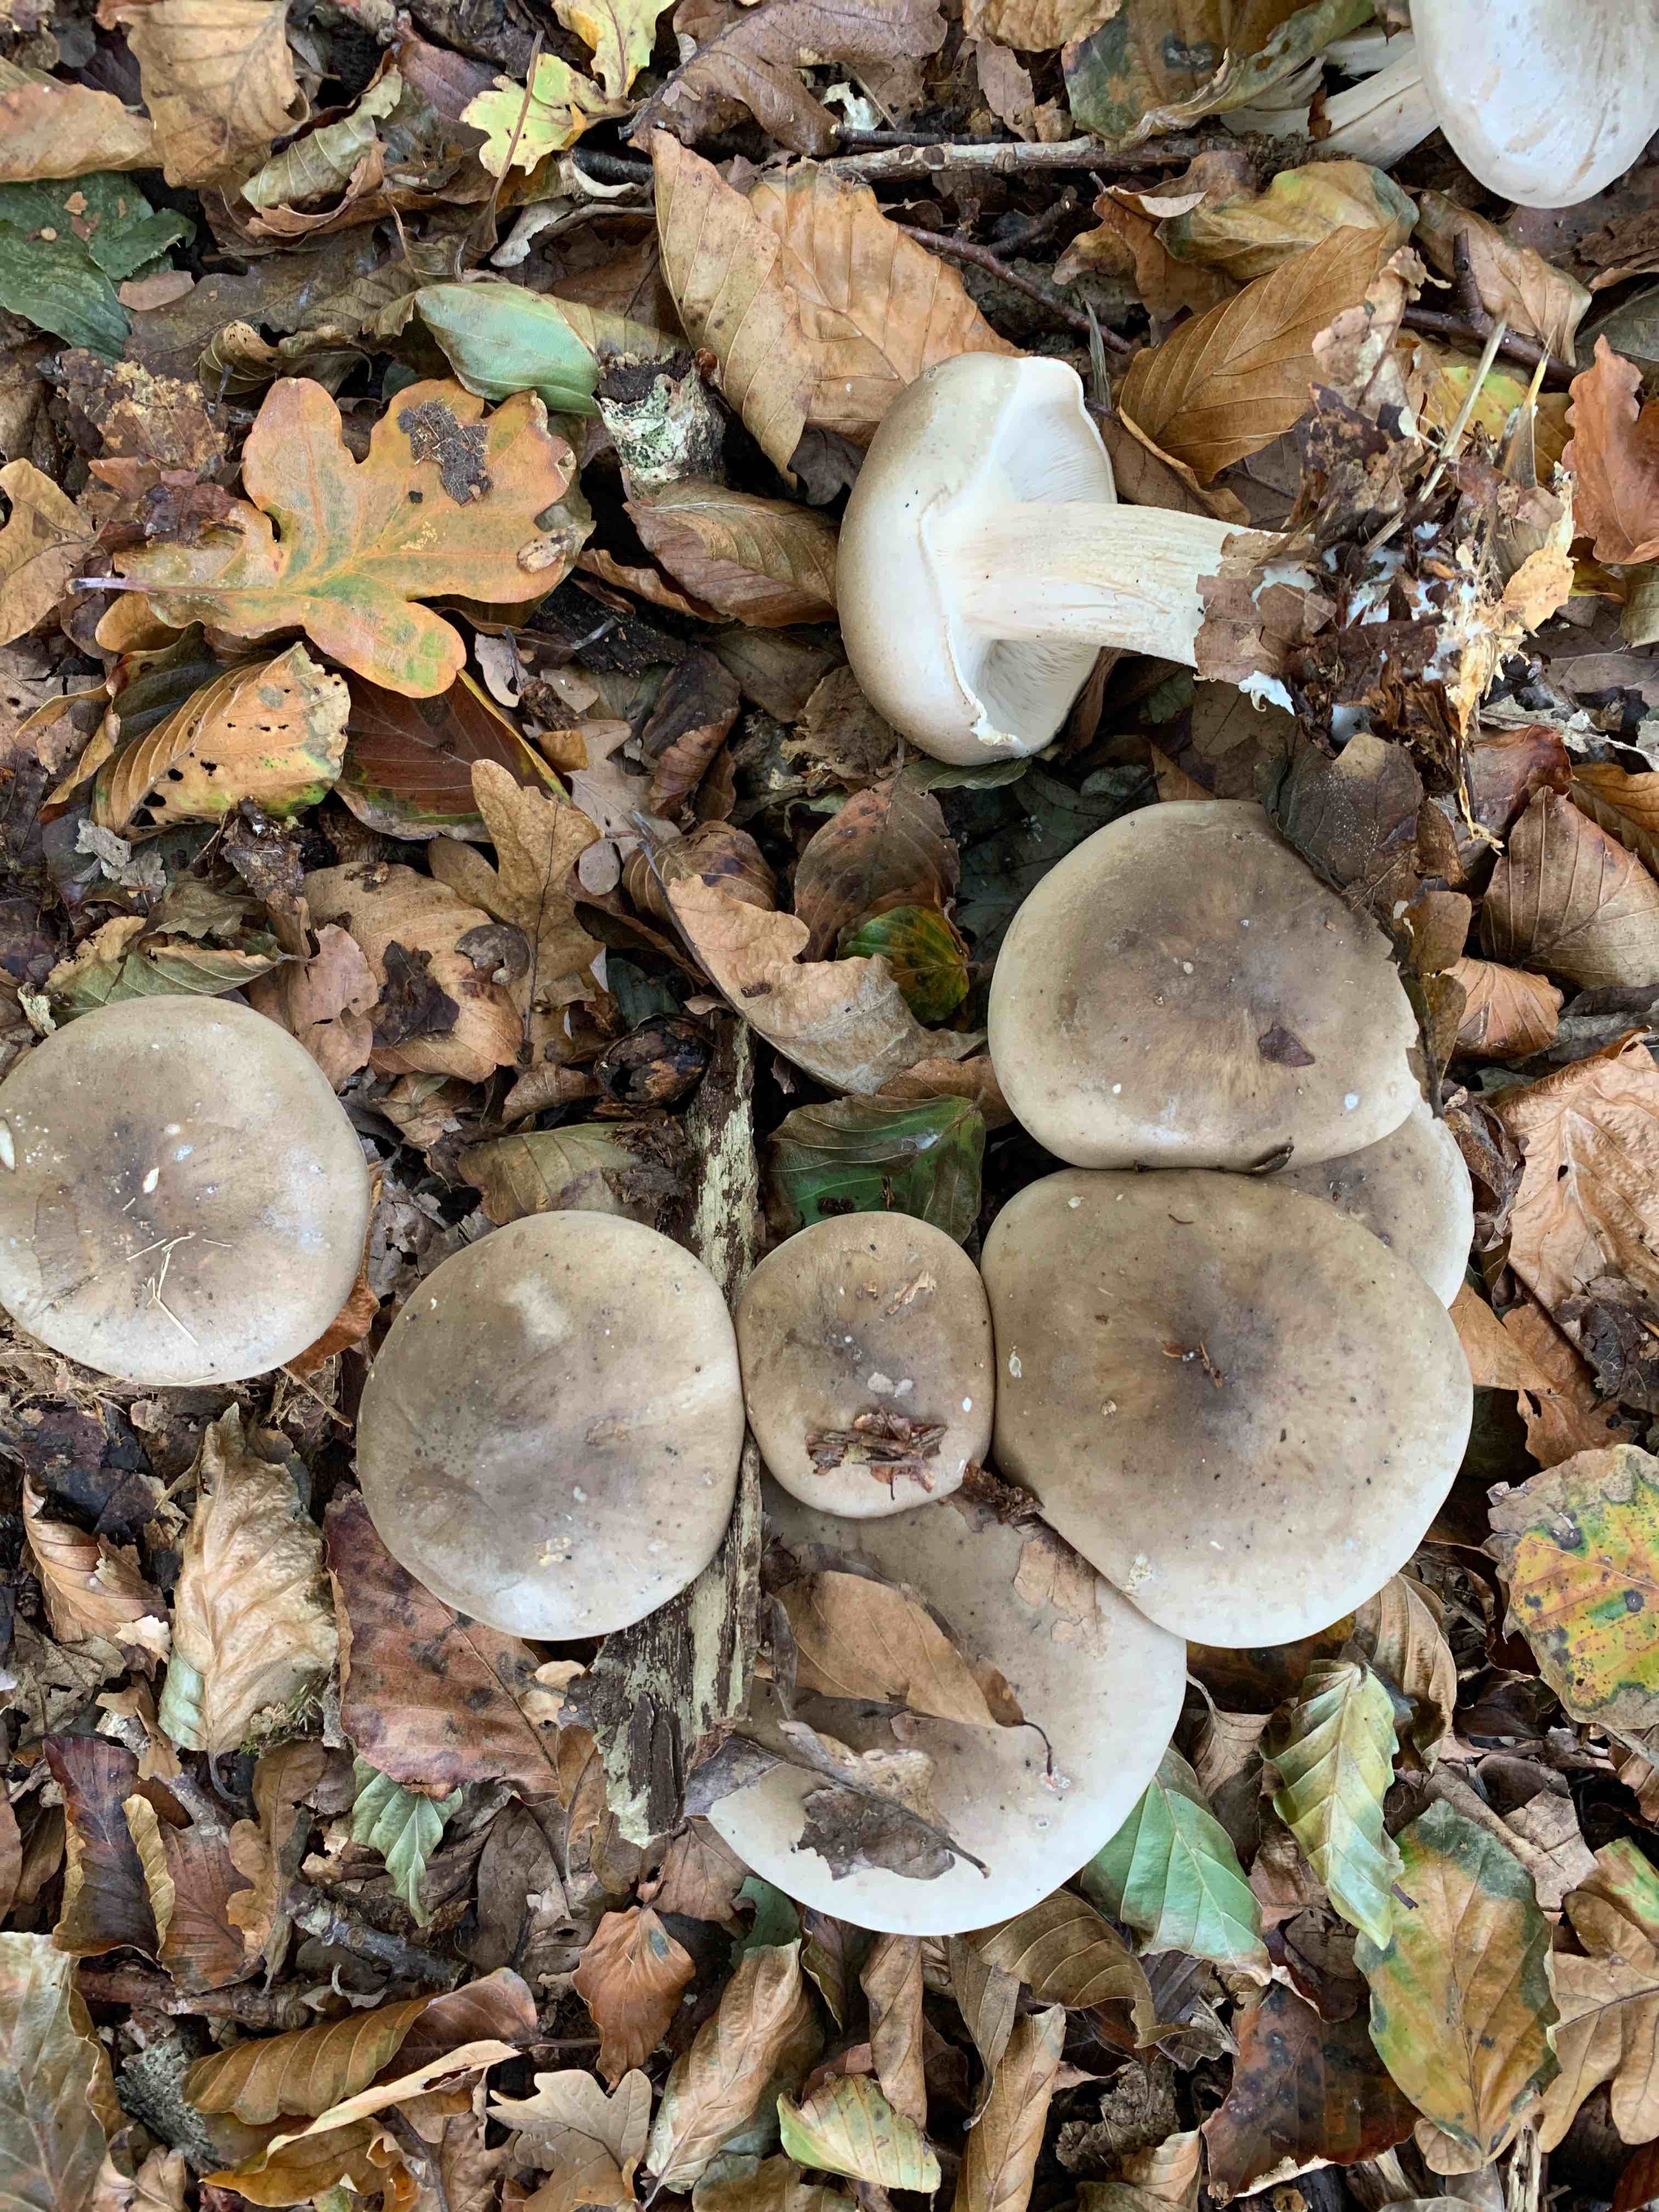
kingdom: Fungi
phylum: Basidiomycota
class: Agaricomycetes
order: Agaricales
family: Tricholomataceae
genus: Clitocybe
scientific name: Clitocybe nebularis
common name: tåge-tragthat
